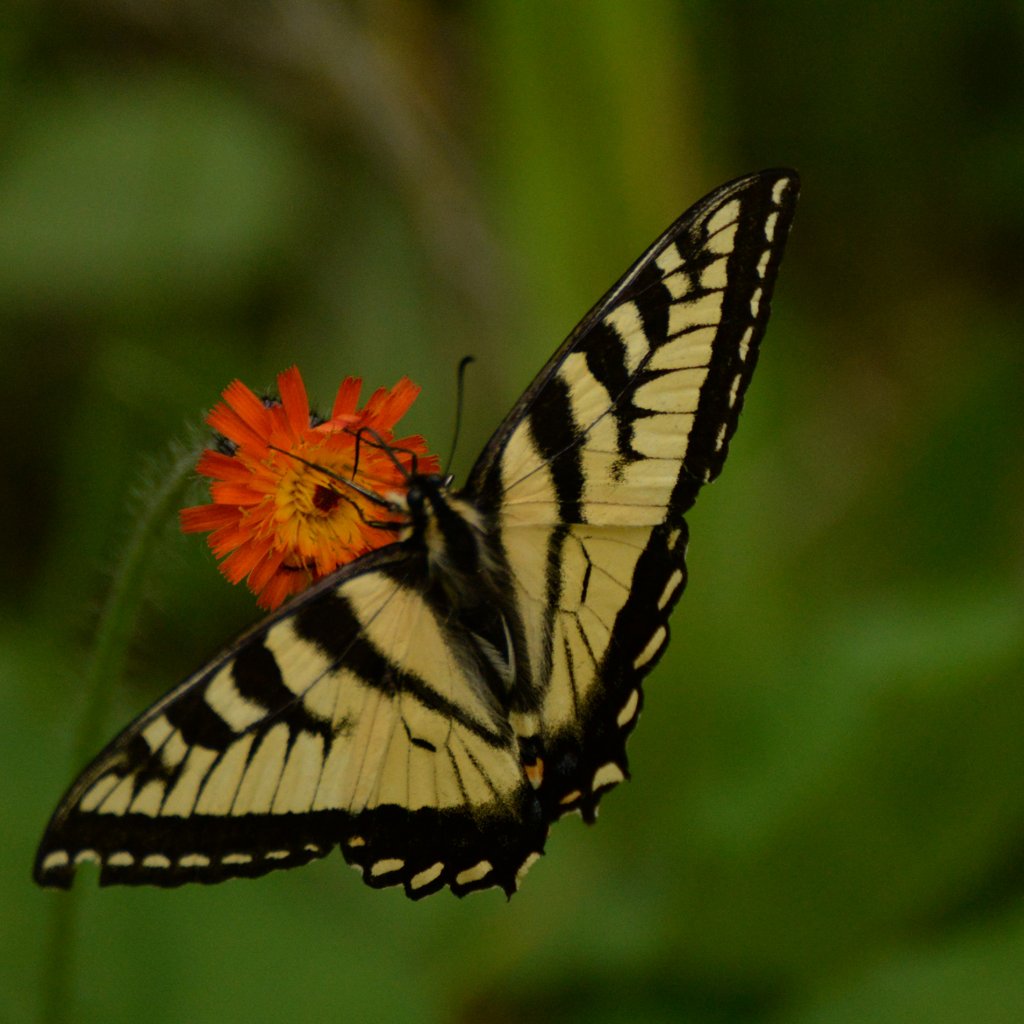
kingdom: Animalia
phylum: Arthropoda
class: Insecta
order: Lepidoptera
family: Papilionidae
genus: Pterourus
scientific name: Pterourus canadensis
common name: Canadian Tiger Swallowtail
